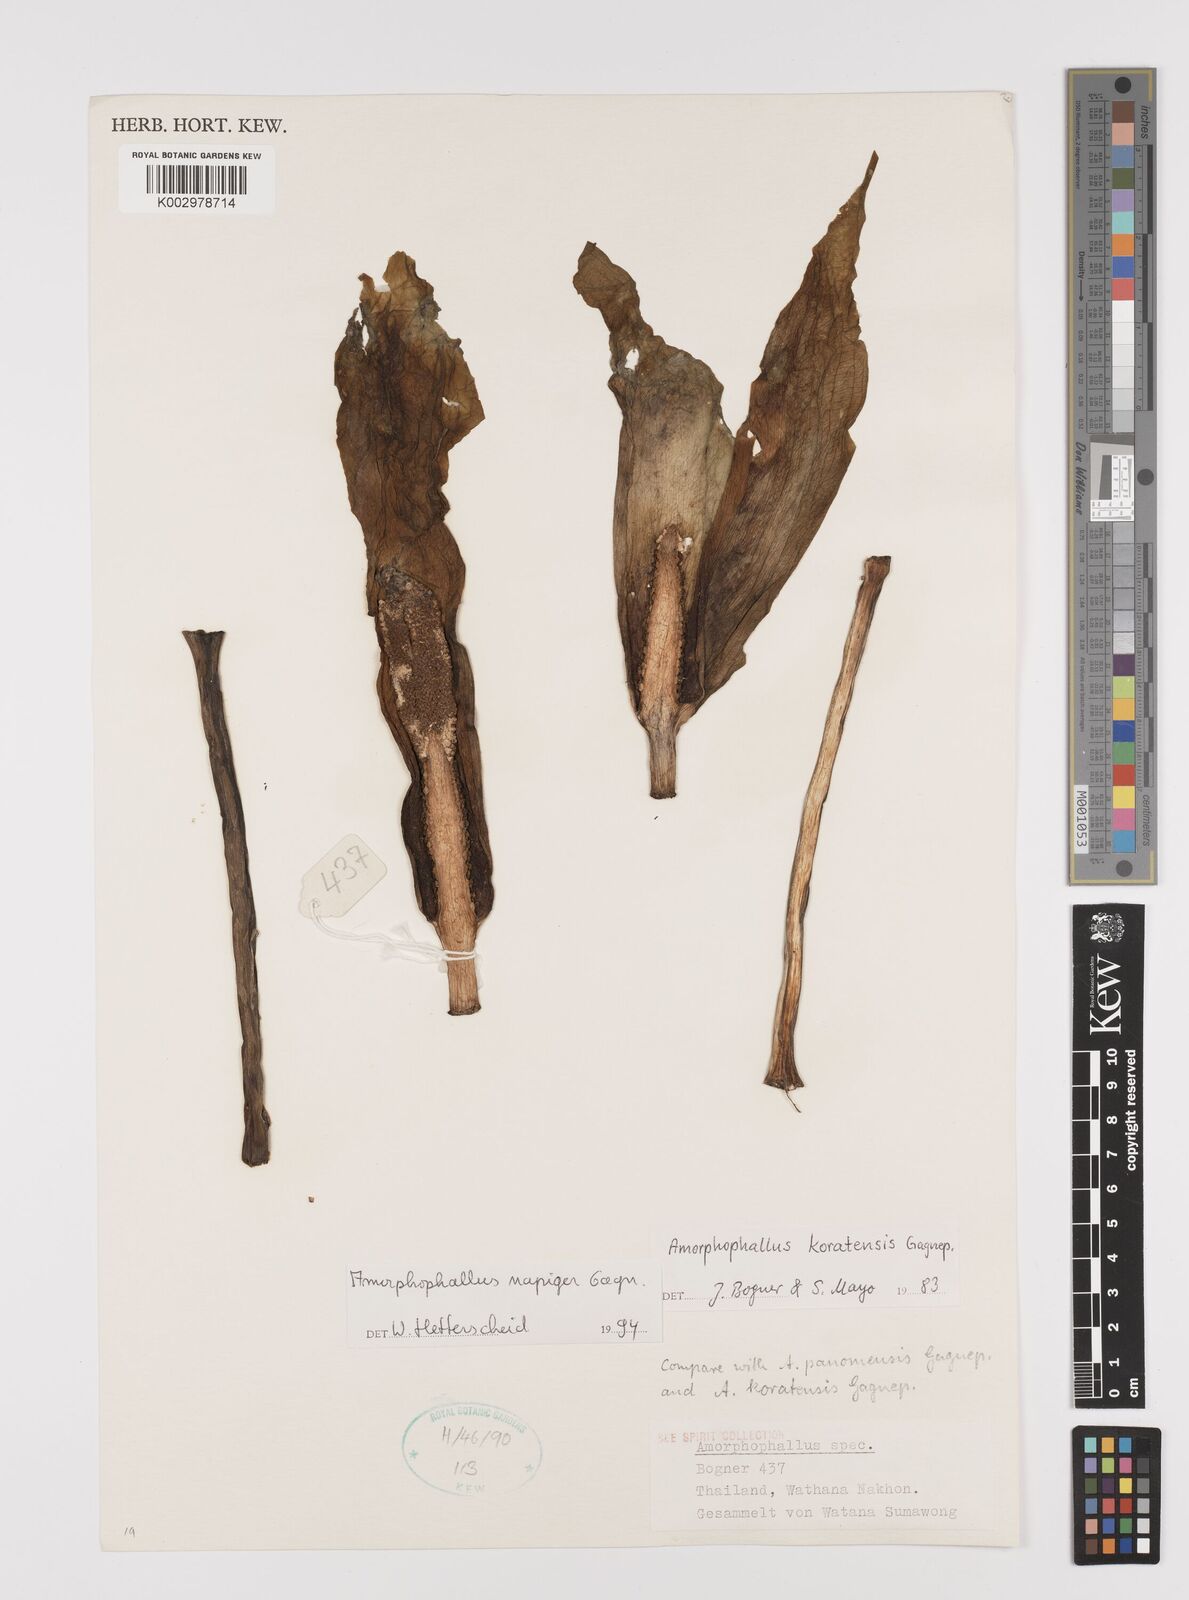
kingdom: Plantae
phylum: Tracheophyta
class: Liliopsida
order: Alismatales
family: Araceae
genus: Amorphophallus
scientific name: Amorphophallus napiger
